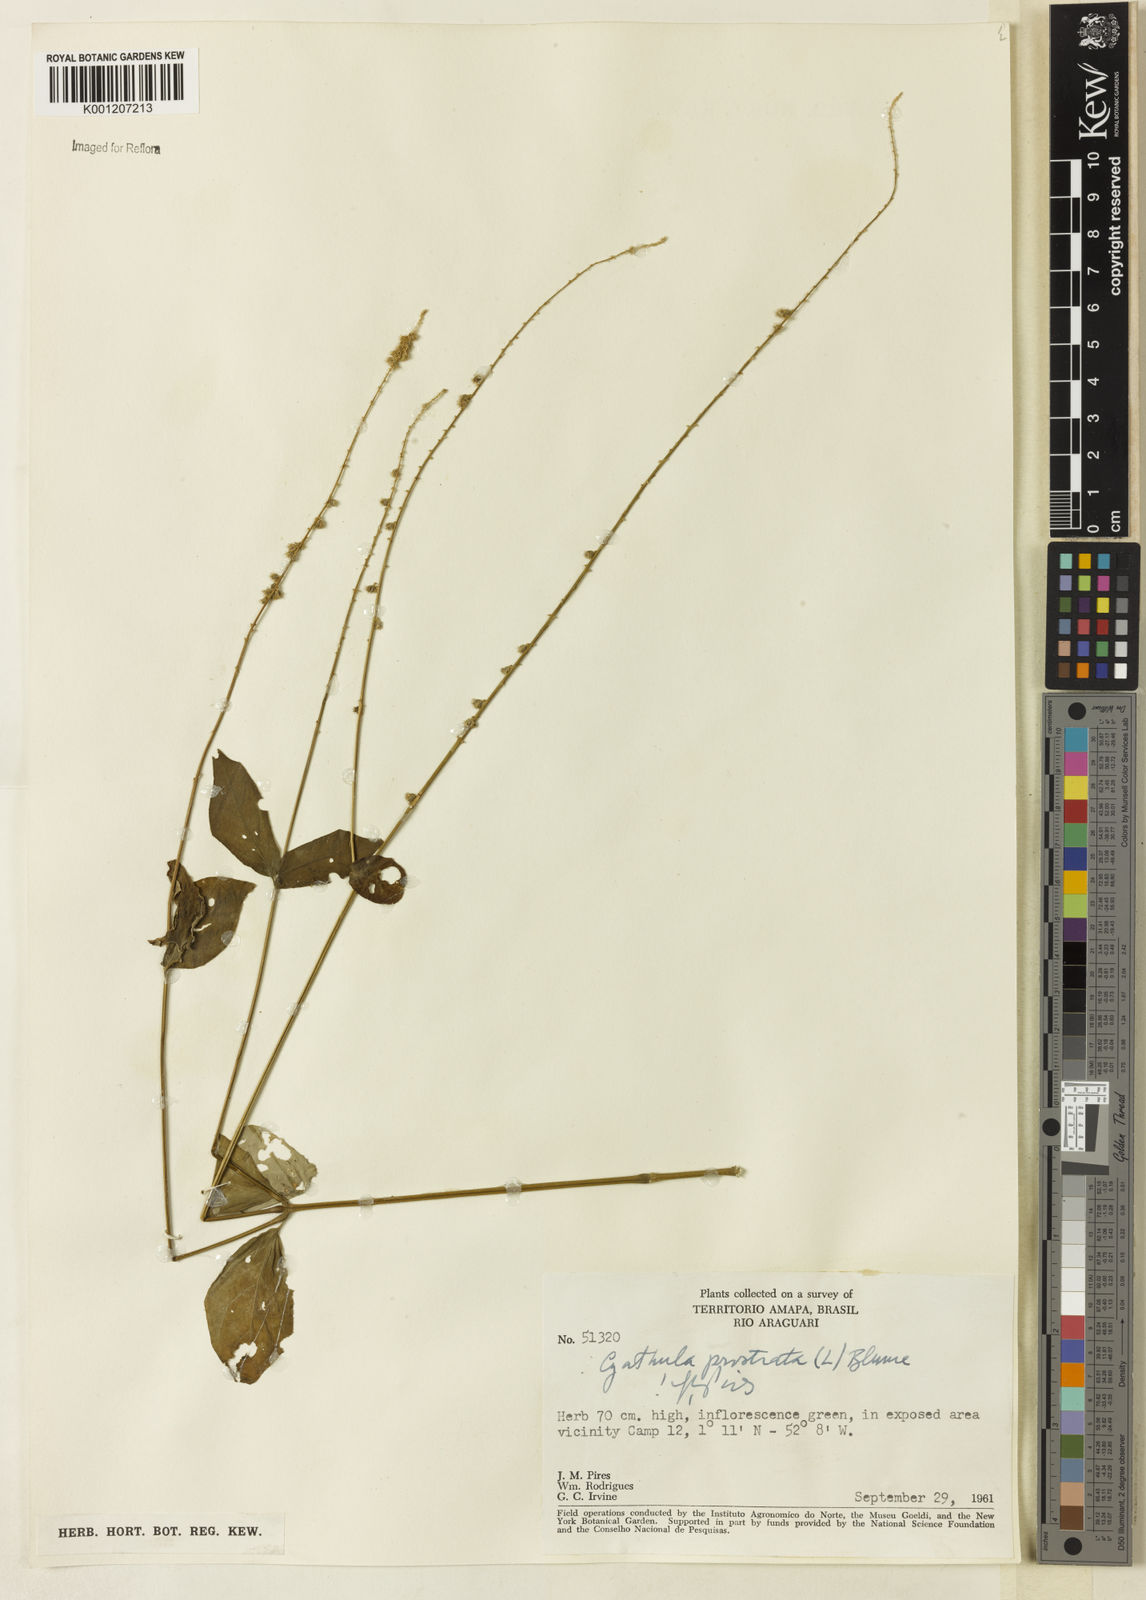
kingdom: Plantae
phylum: Tracheophyta
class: Magnoliopsida
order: Caryophyllales
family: Amaranthaceae
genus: Cyathula
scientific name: Cyathula prostrata
